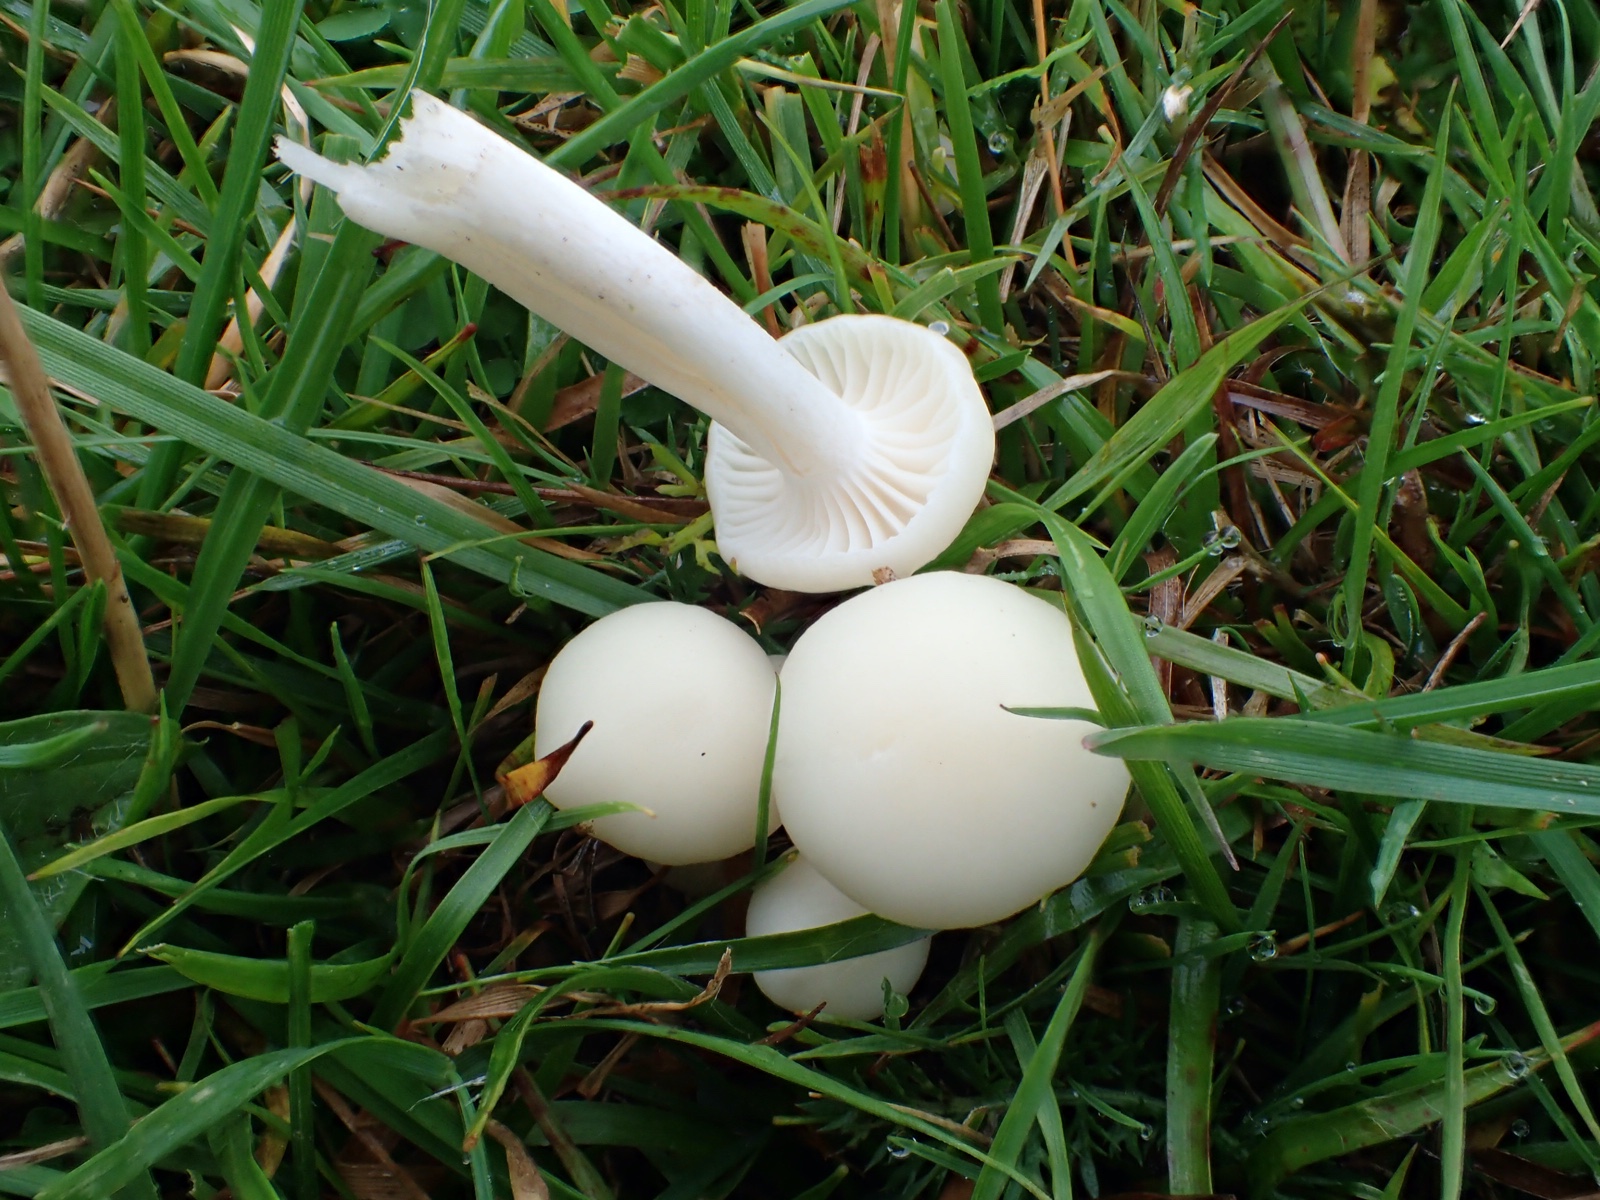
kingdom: Fungi
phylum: Basidiomycota
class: Agaricomycetes
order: Agaricales
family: Hygrophoraceae
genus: Cuphophyllus
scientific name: Cuphophyllus virgineus
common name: snehvid vokshat
